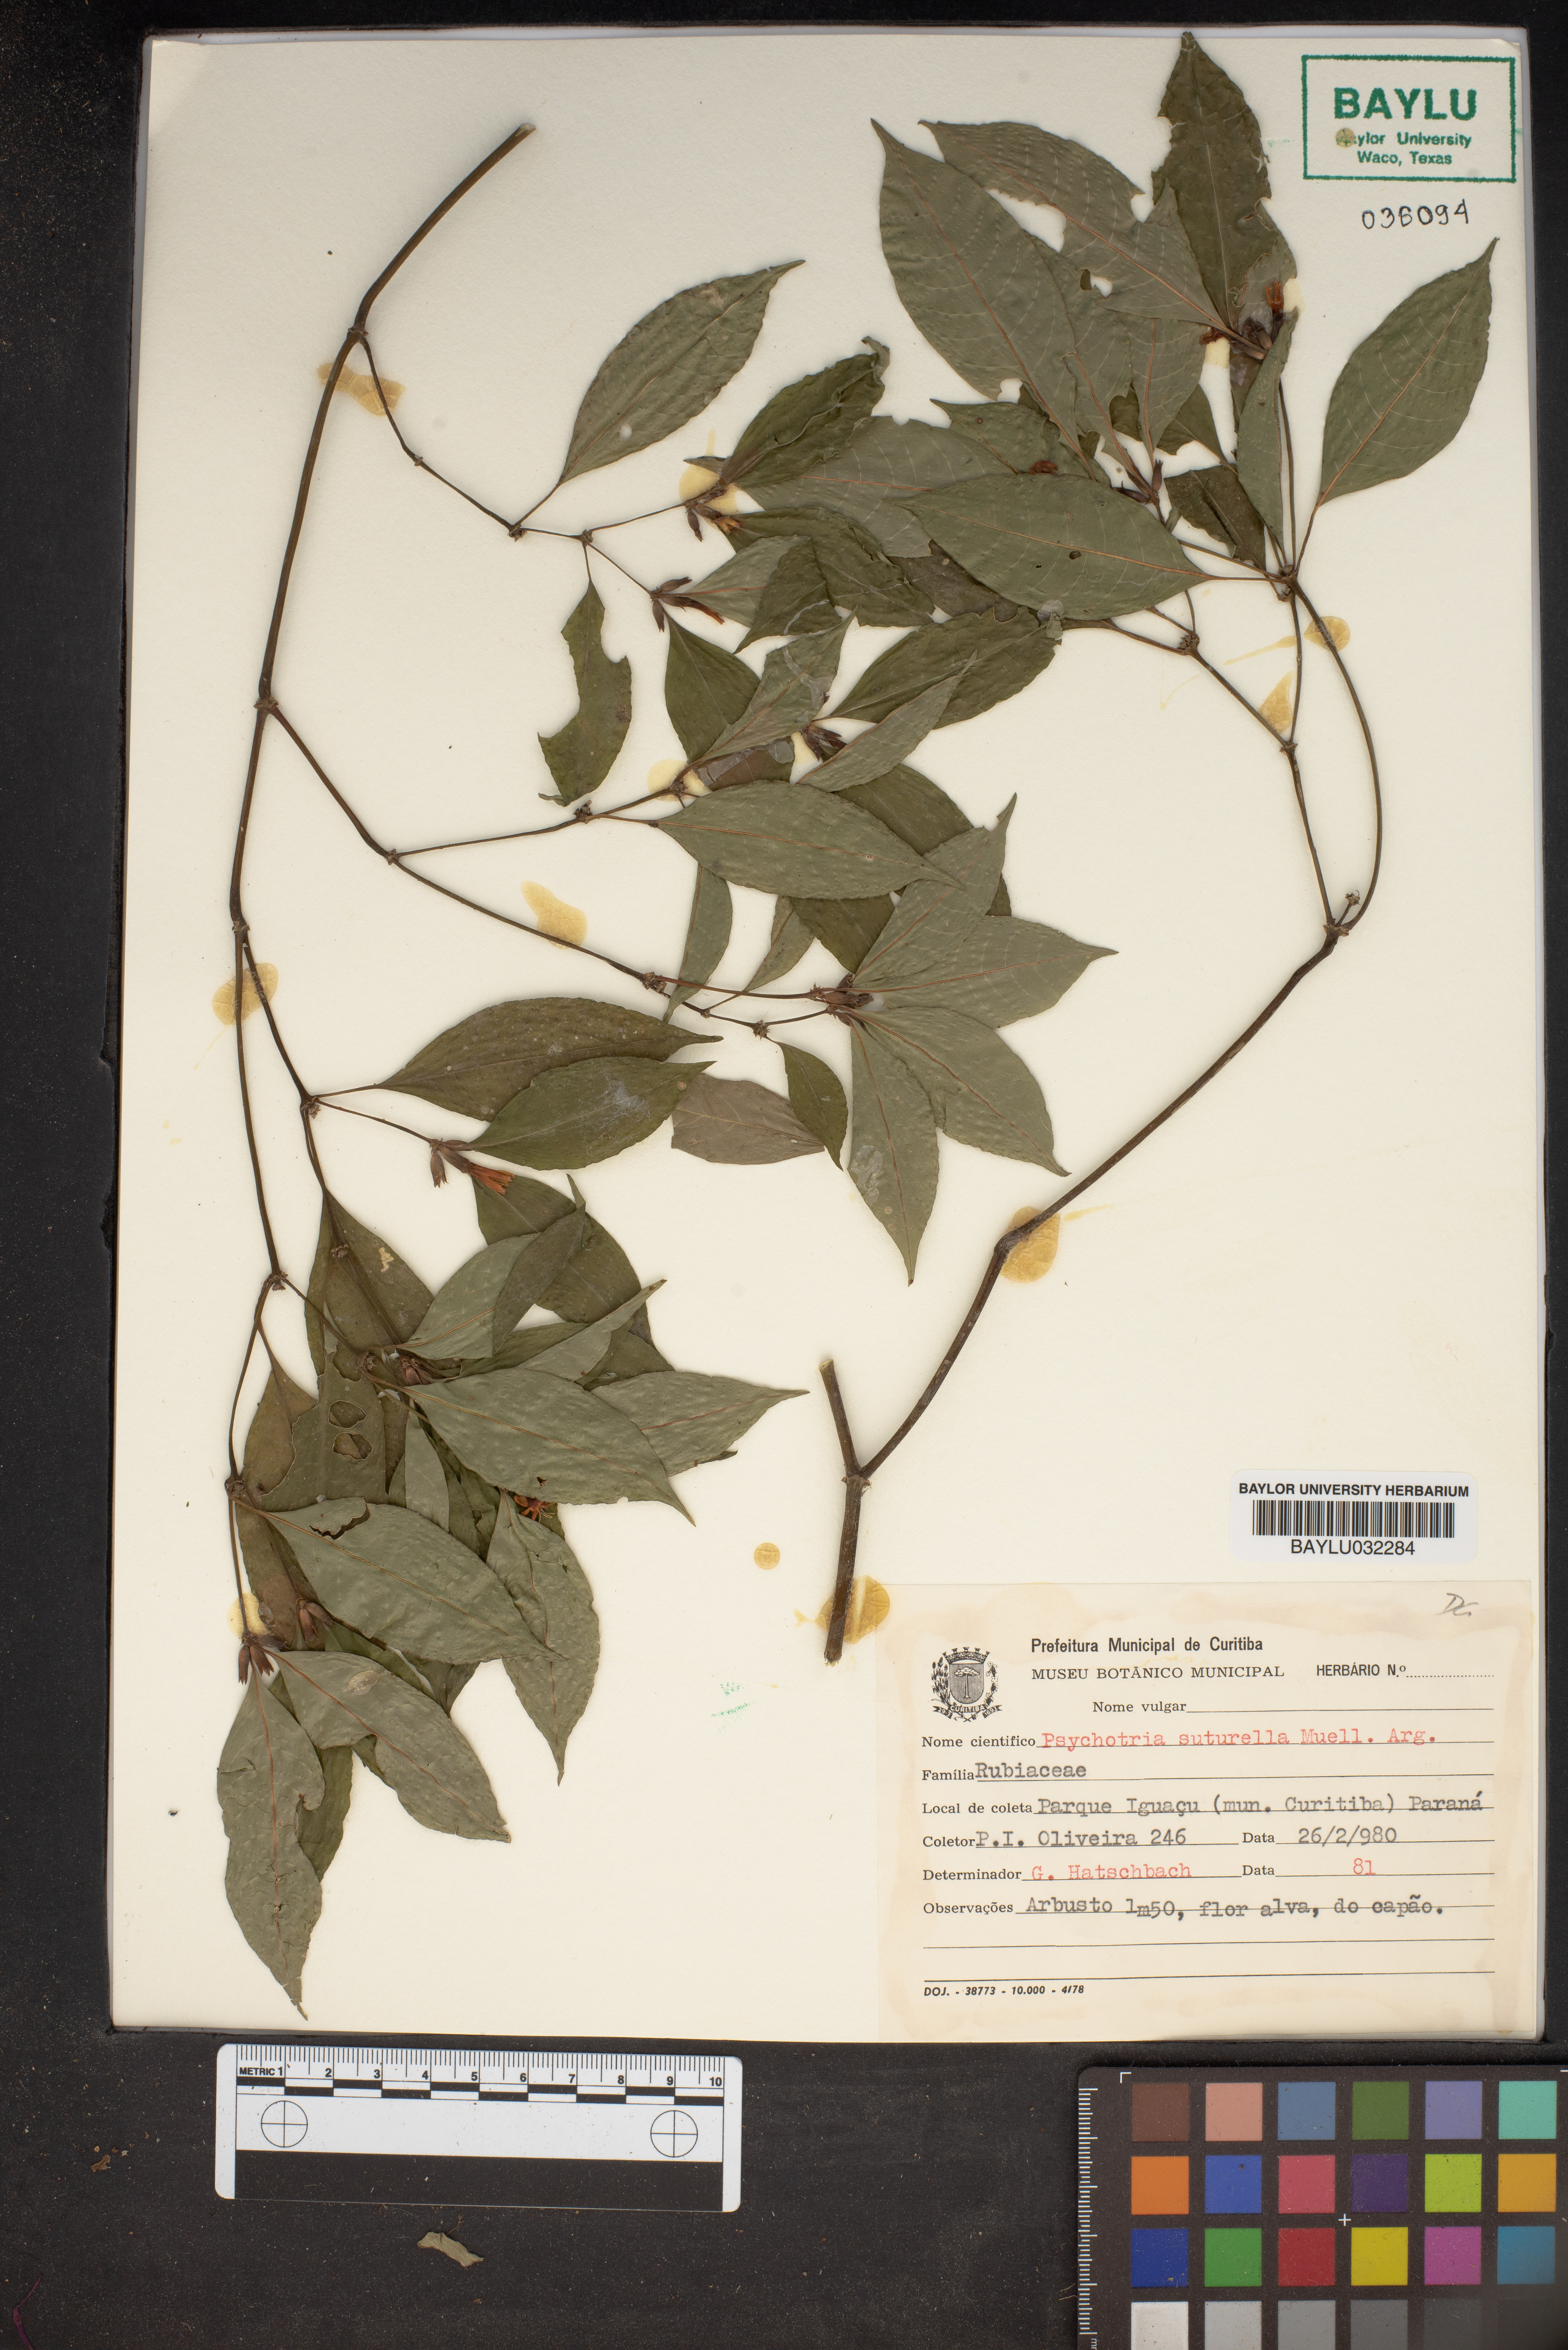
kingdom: Plantae
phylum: Tracheophyta
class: Magnoliopsida
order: Gentianales
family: Rubiaceae
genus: Psychotria
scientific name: Psychotria suterella
